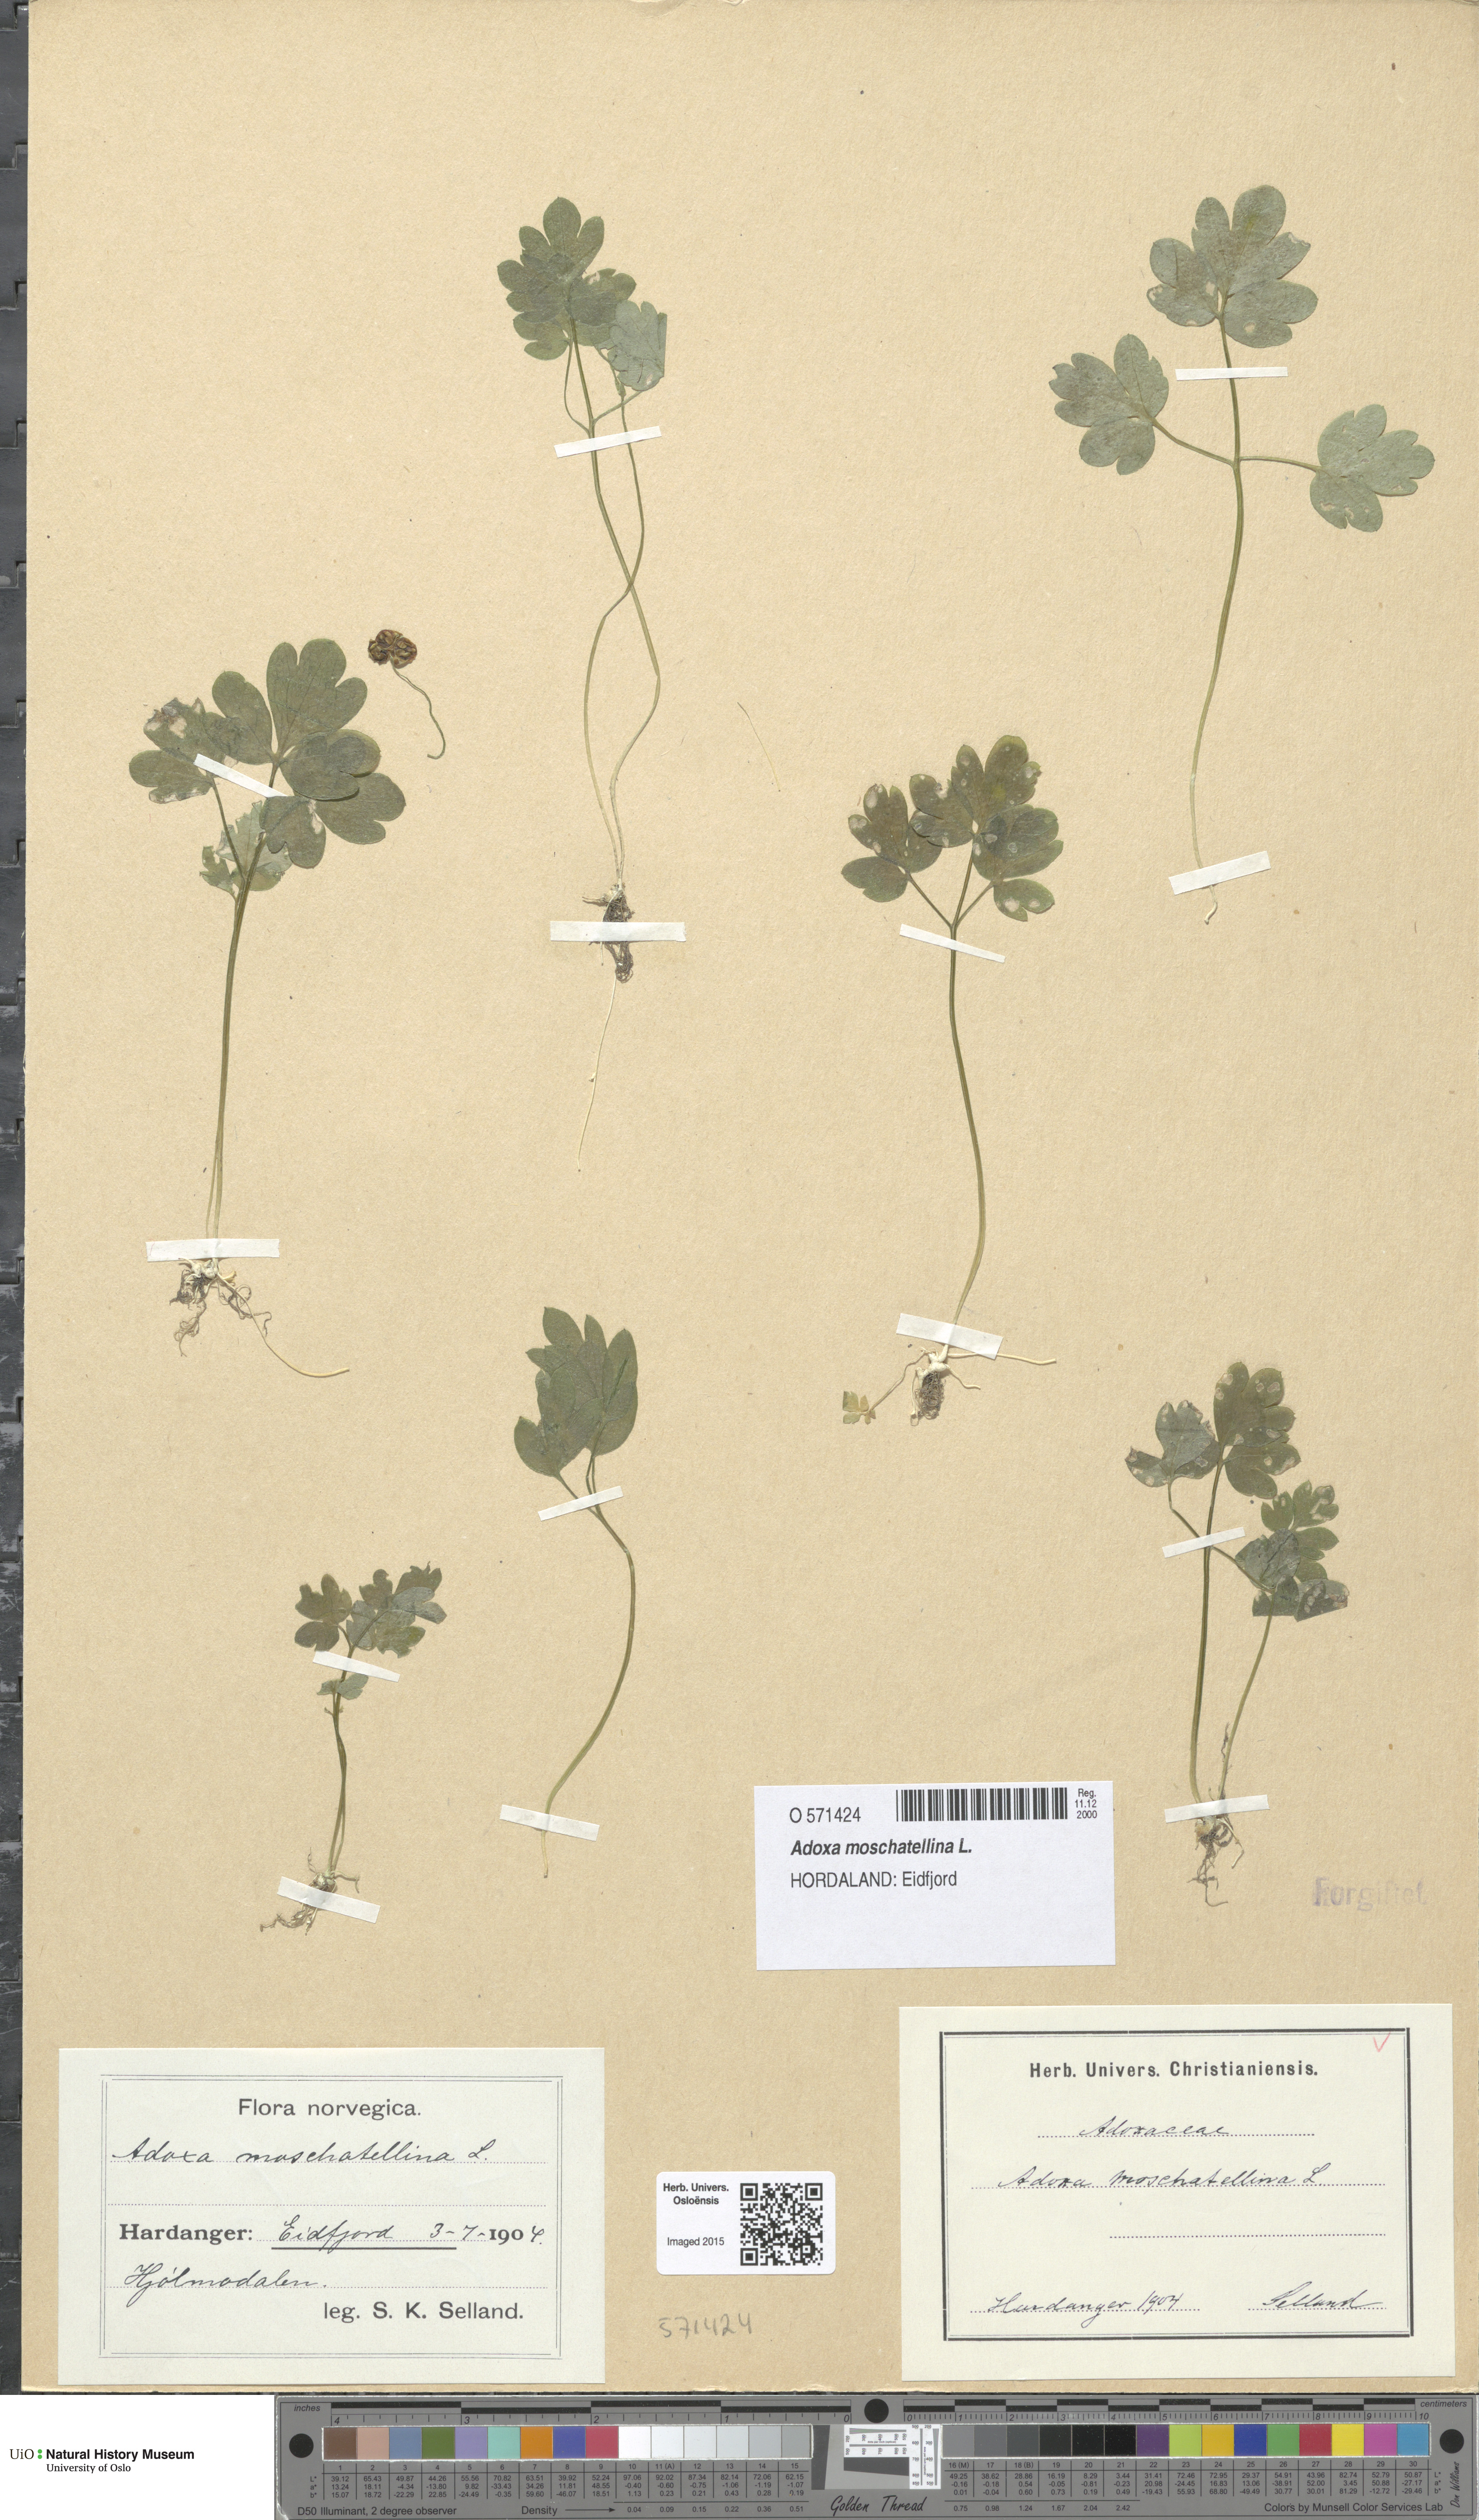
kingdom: Plantae
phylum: Tracheophyta
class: Magnoliopsida
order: Dipsacales
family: Viburnaceae
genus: Adoxa
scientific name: Adoxa moschatellina
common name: Moschatel
